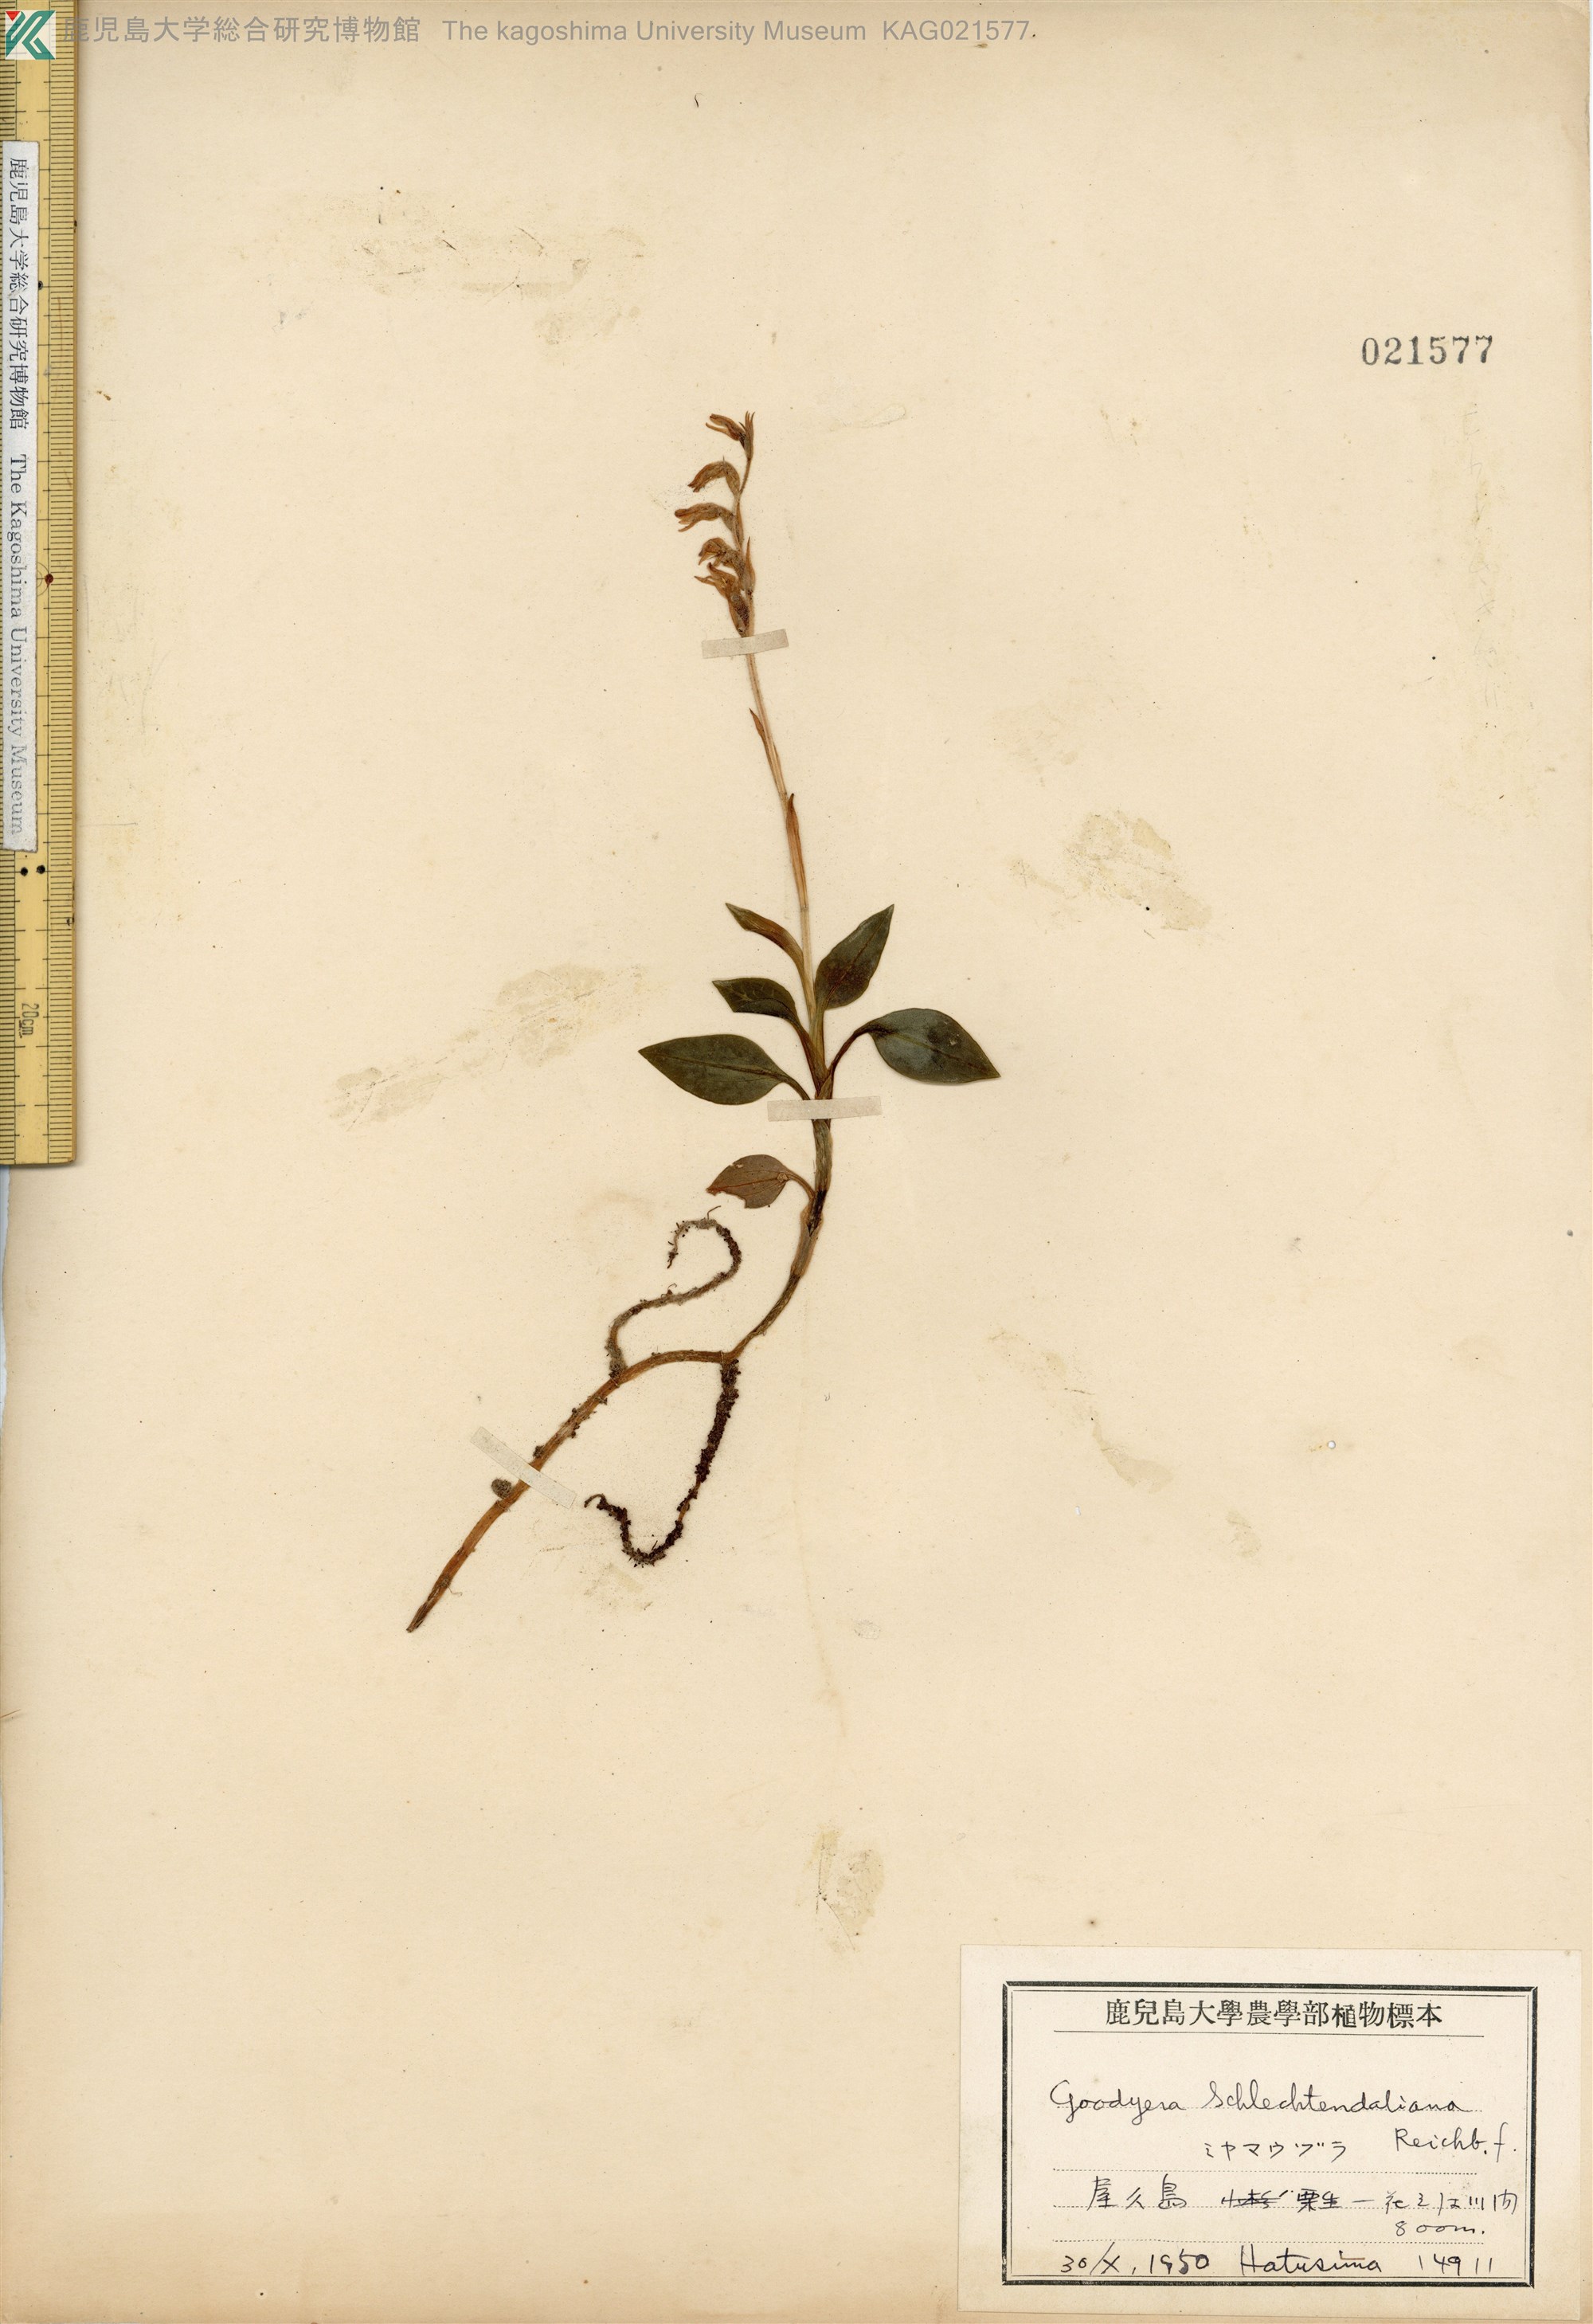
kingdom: Plantae
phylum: Tracheophyta
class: Liliopsida
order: Asparagales
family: Orchidaceae
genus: Goodyera
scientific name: Goodyera schlechtendaliana
